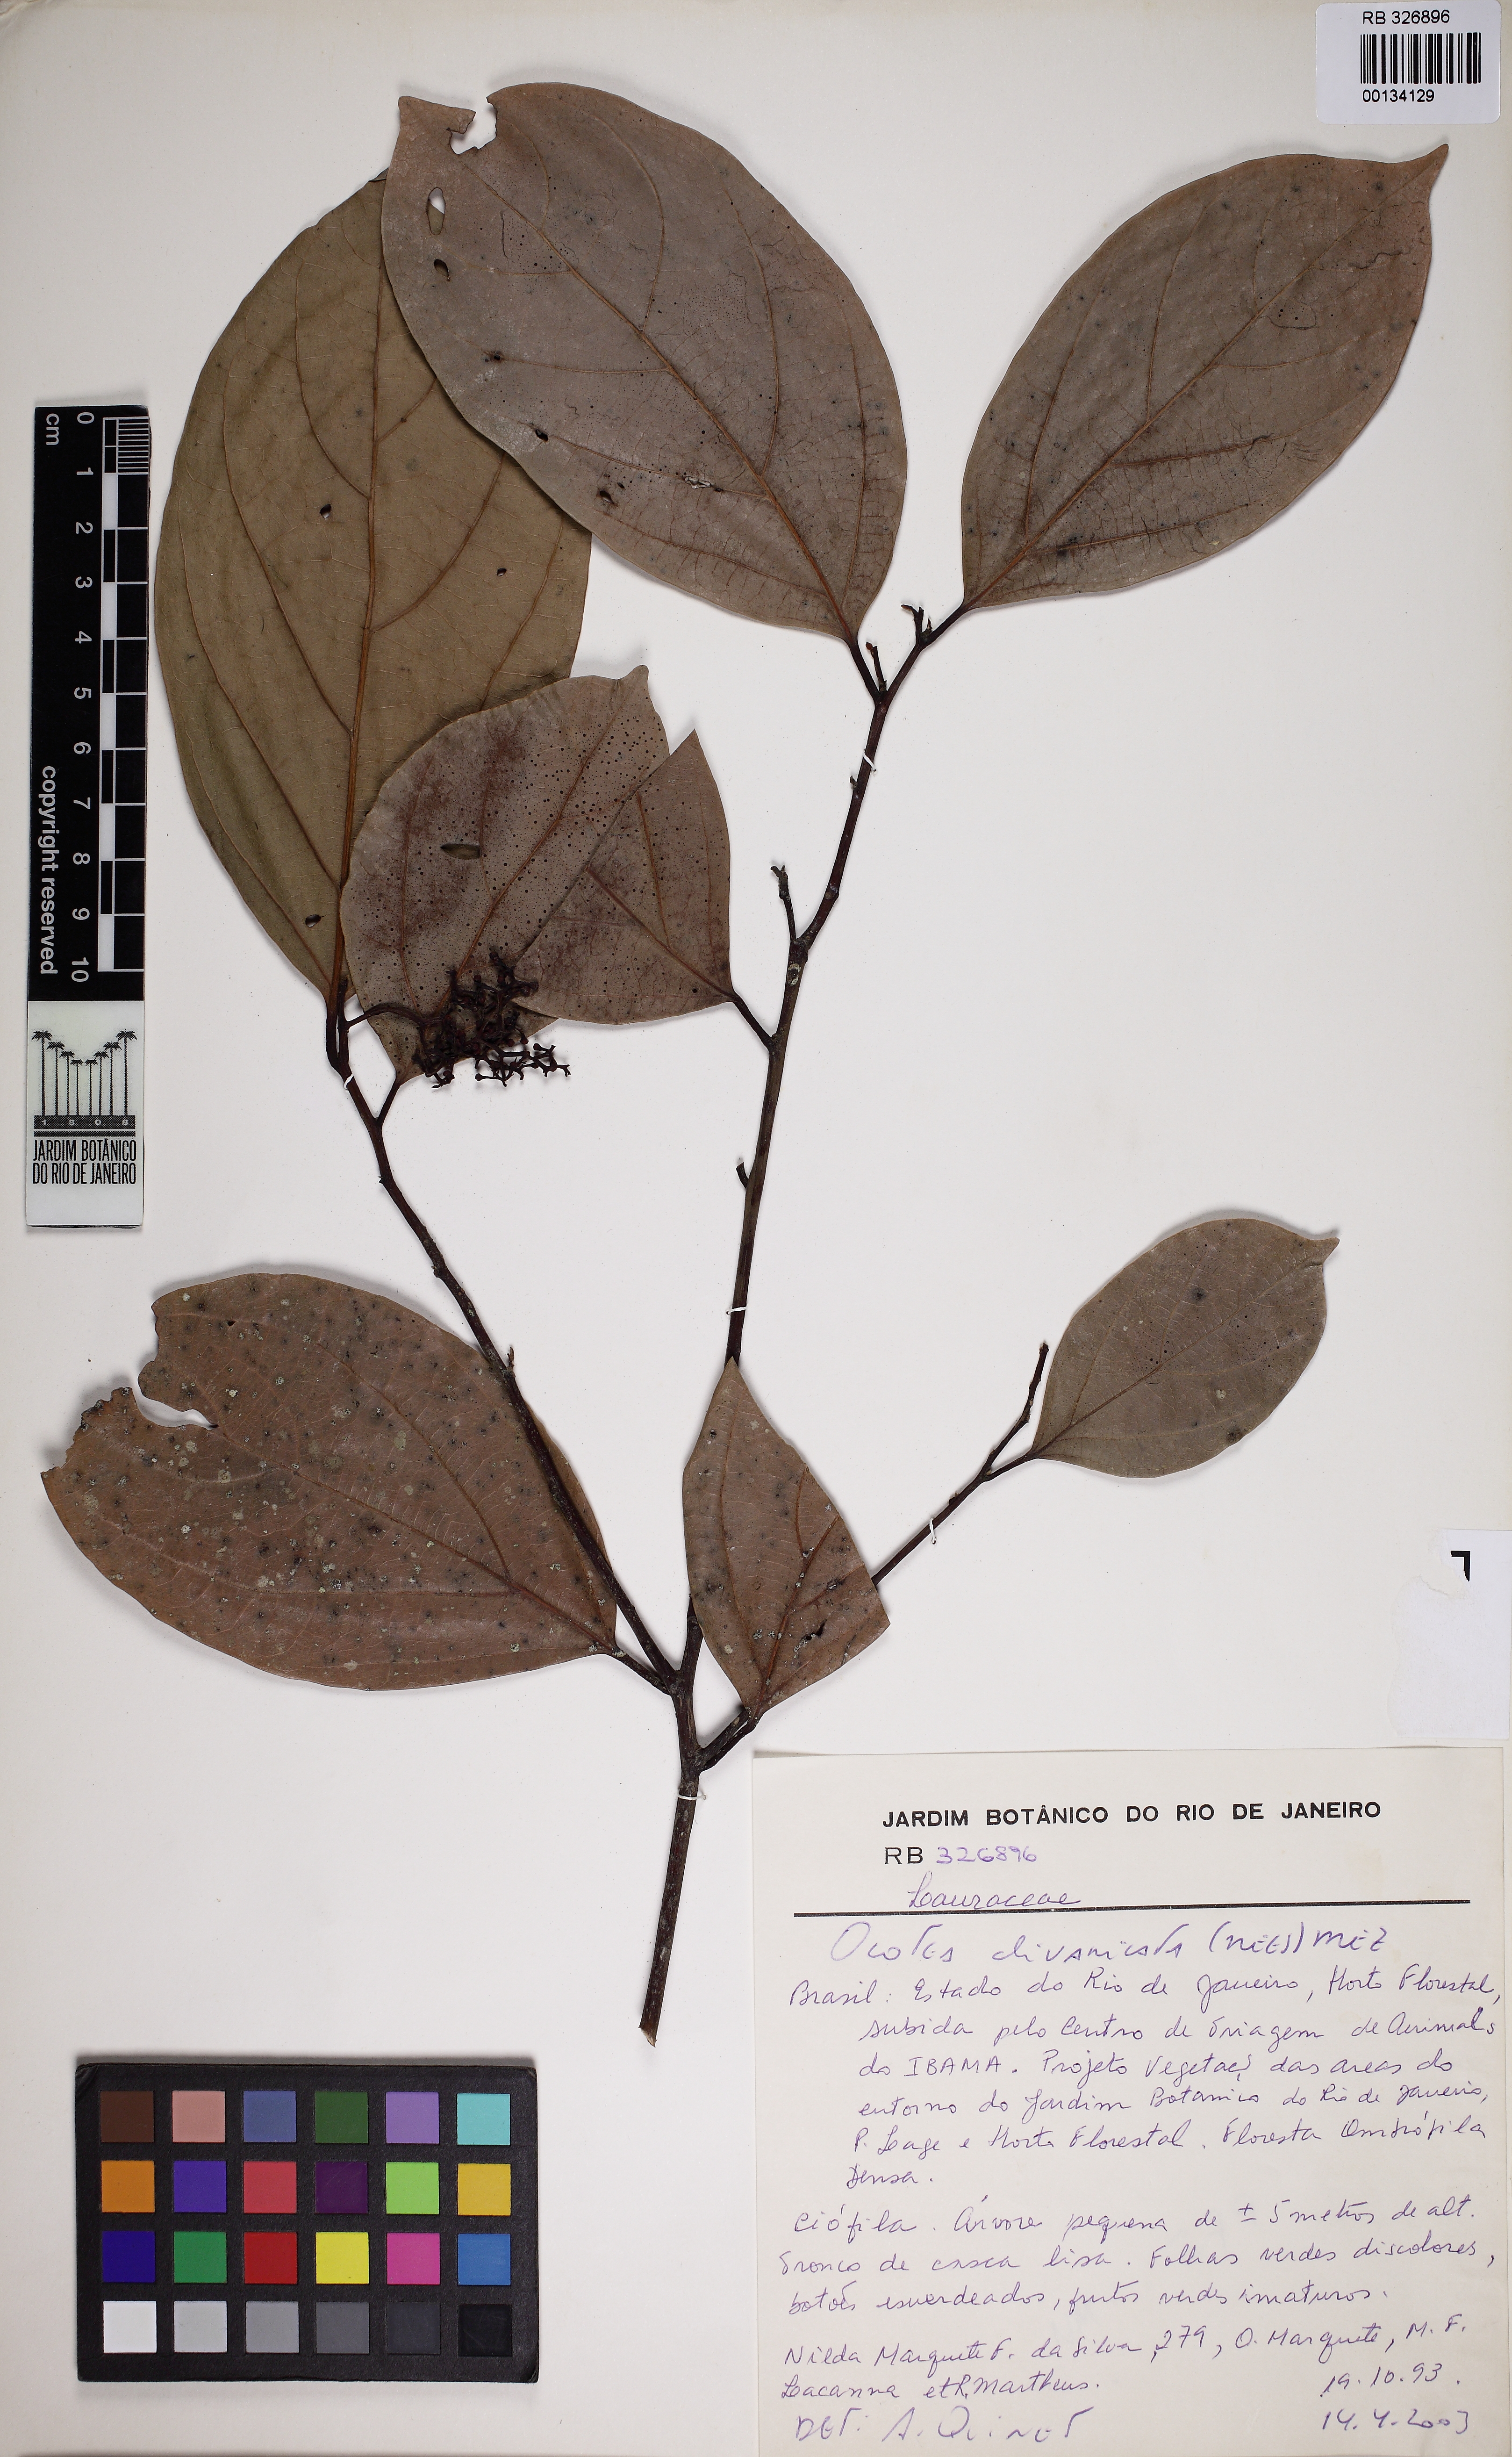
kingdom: Plantae
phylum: Tracheophyta
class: Magnoliopsida
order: Laurales
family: Lauraceae
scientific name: Lauraceae
